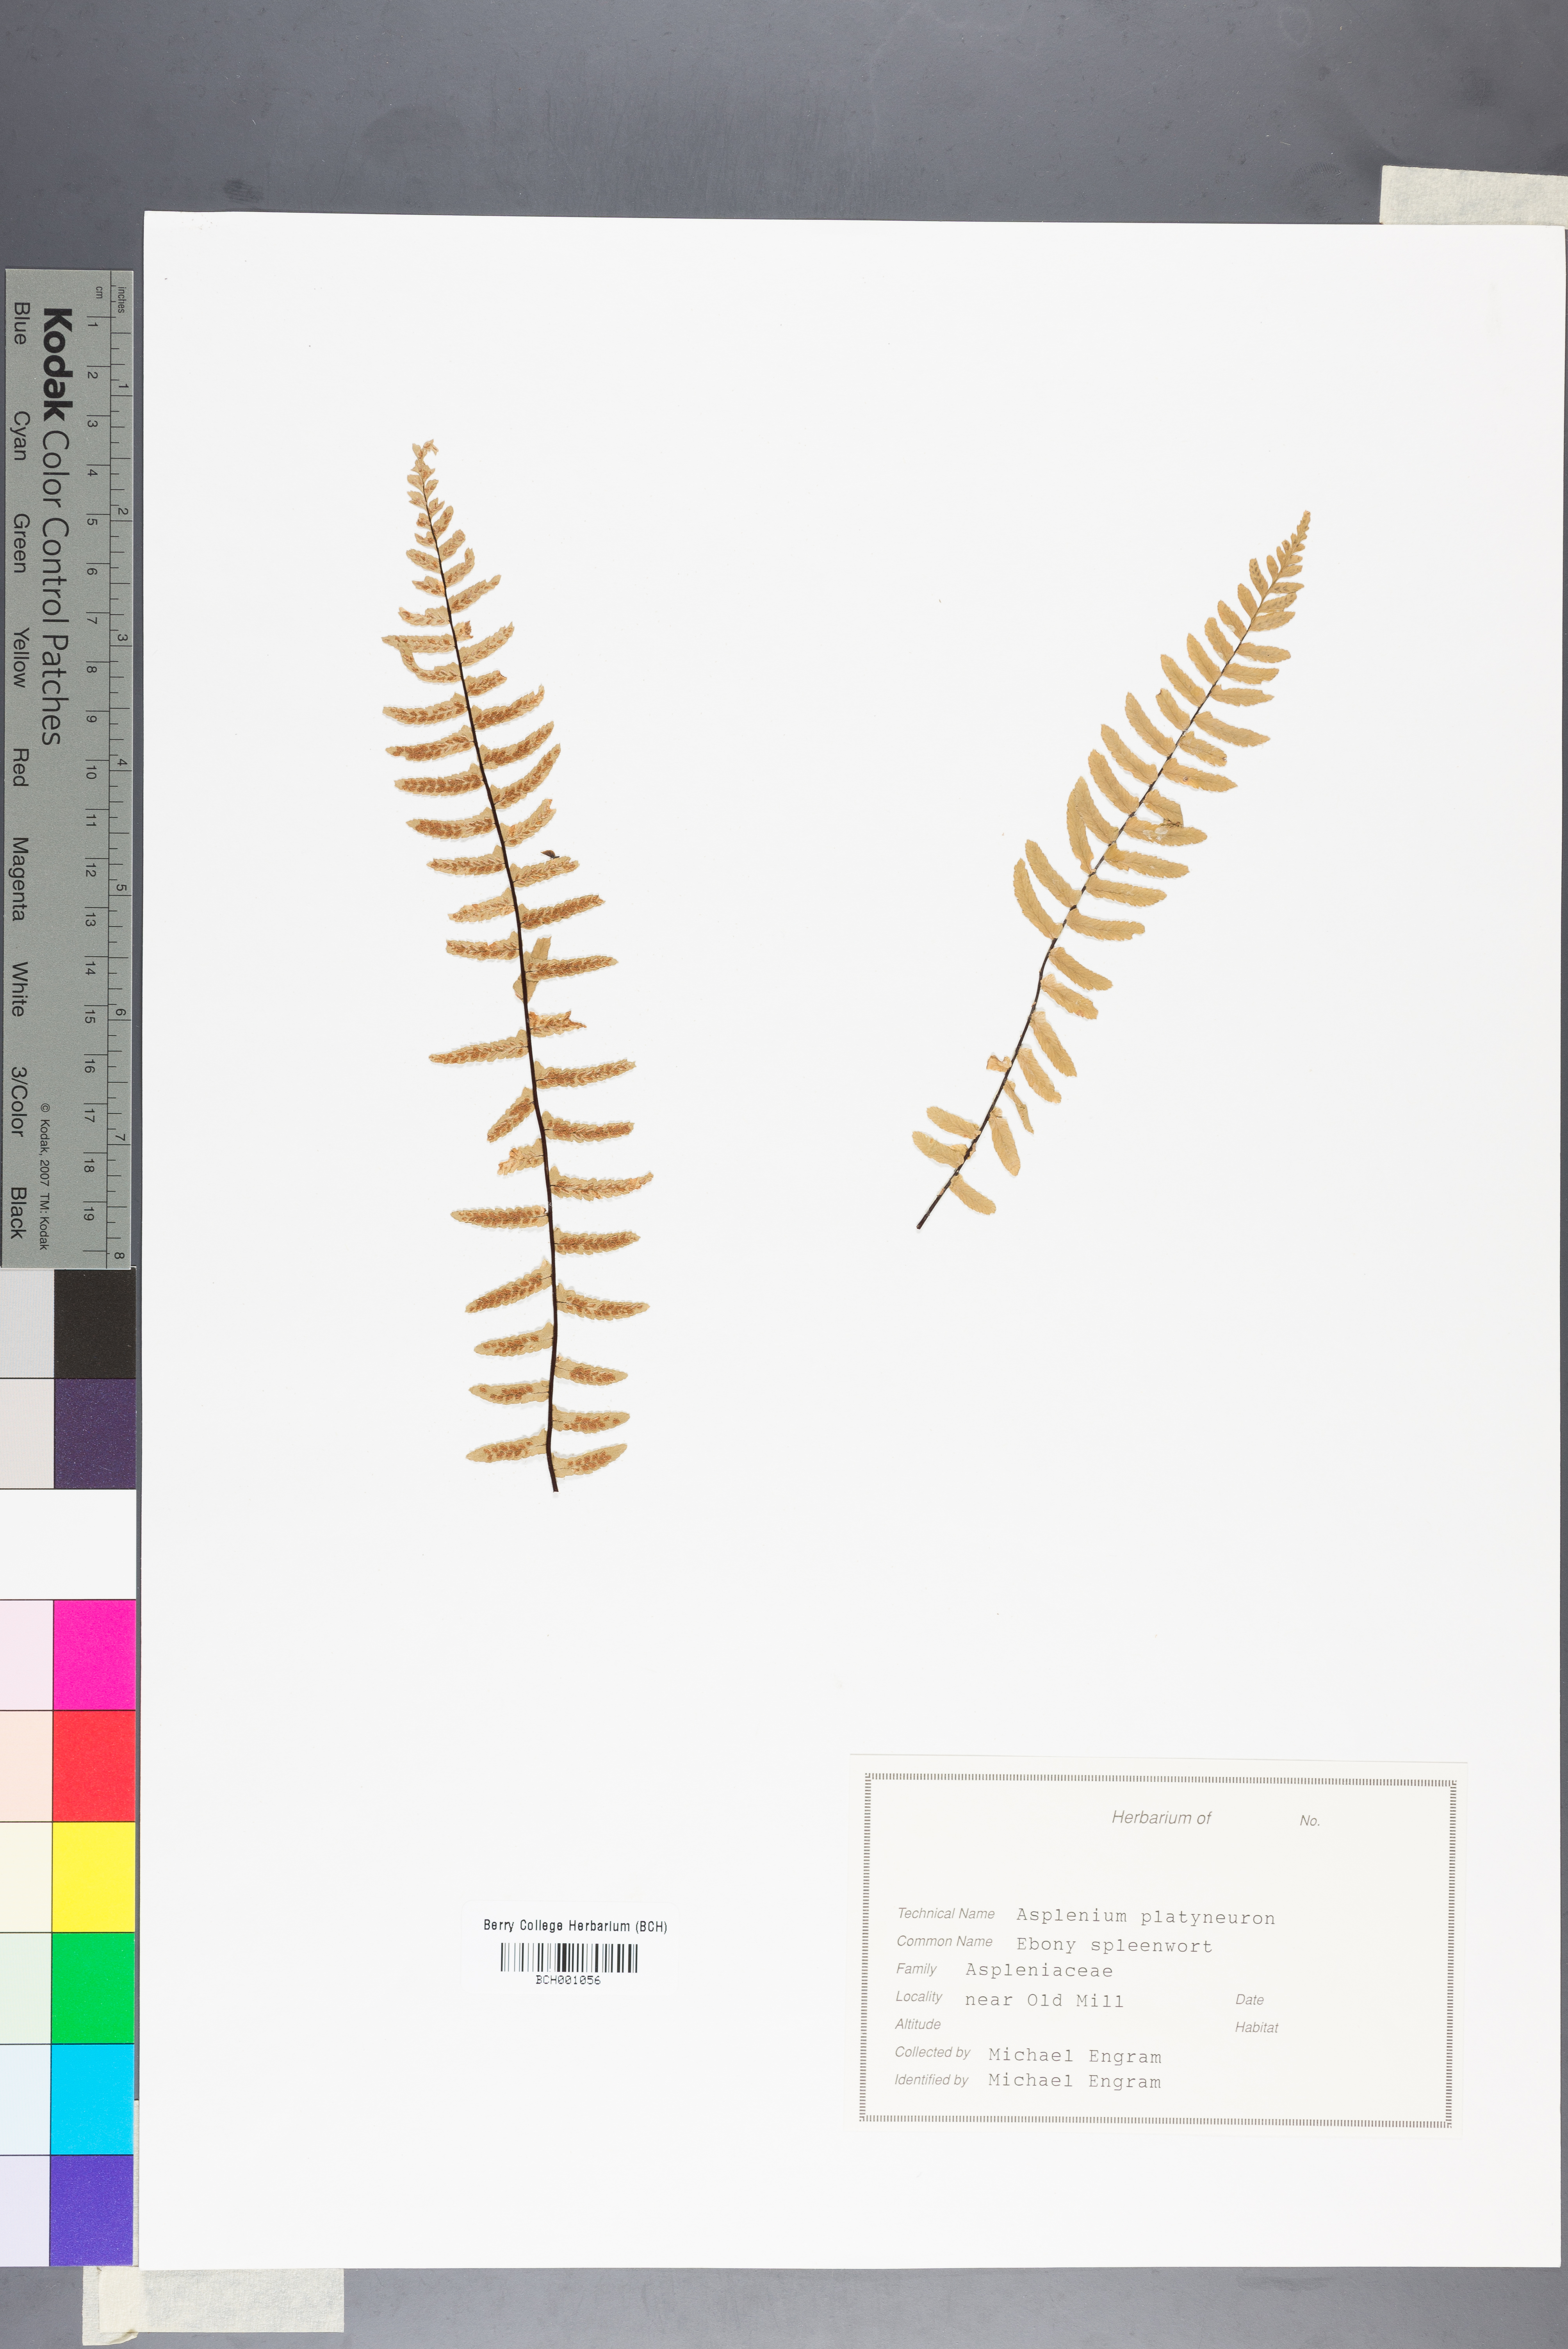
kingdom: Plantae
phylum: Tracheophyta
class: Polypodiopsida
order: Polypodiales
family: Aspleniaceae
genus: Asplenium
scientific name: Asplenium platyneuron
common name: Ebony spleenwort
